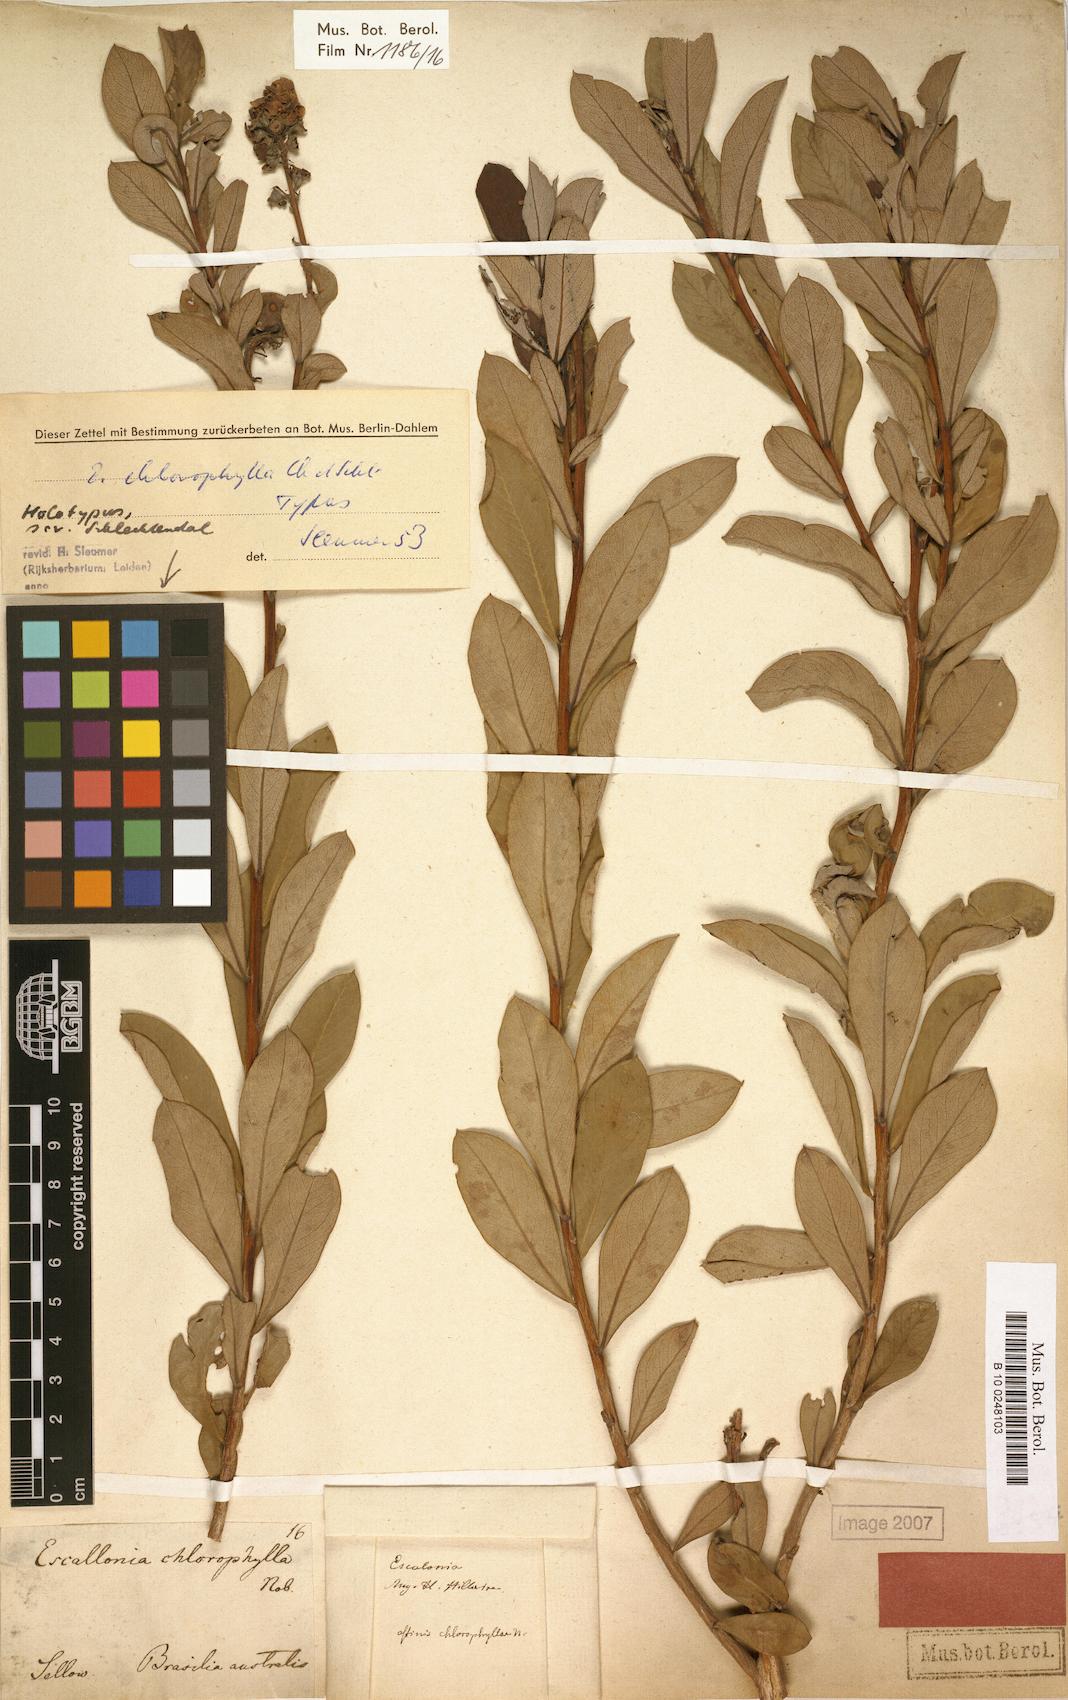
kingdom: Plantae
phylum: Tracheophyta
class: Magnoliopsida
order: Escalloniales
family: Escalloniaceae
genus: Escallonia
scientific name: Escallonia chlorophylla
